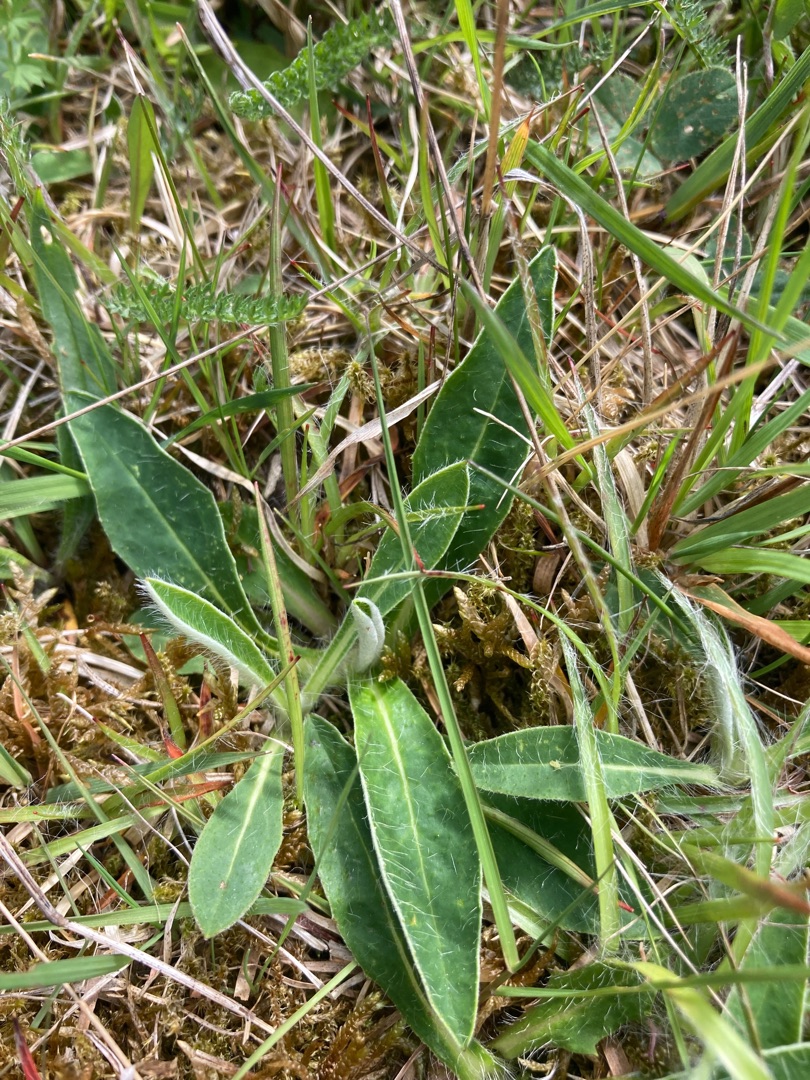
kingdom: Plantae
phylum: Tracheophyta
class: Magnoliopsida
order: Asterales
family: Asteraceae
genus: Pilosella
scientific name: Pilosella officinarum
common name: Håret høgeurt
